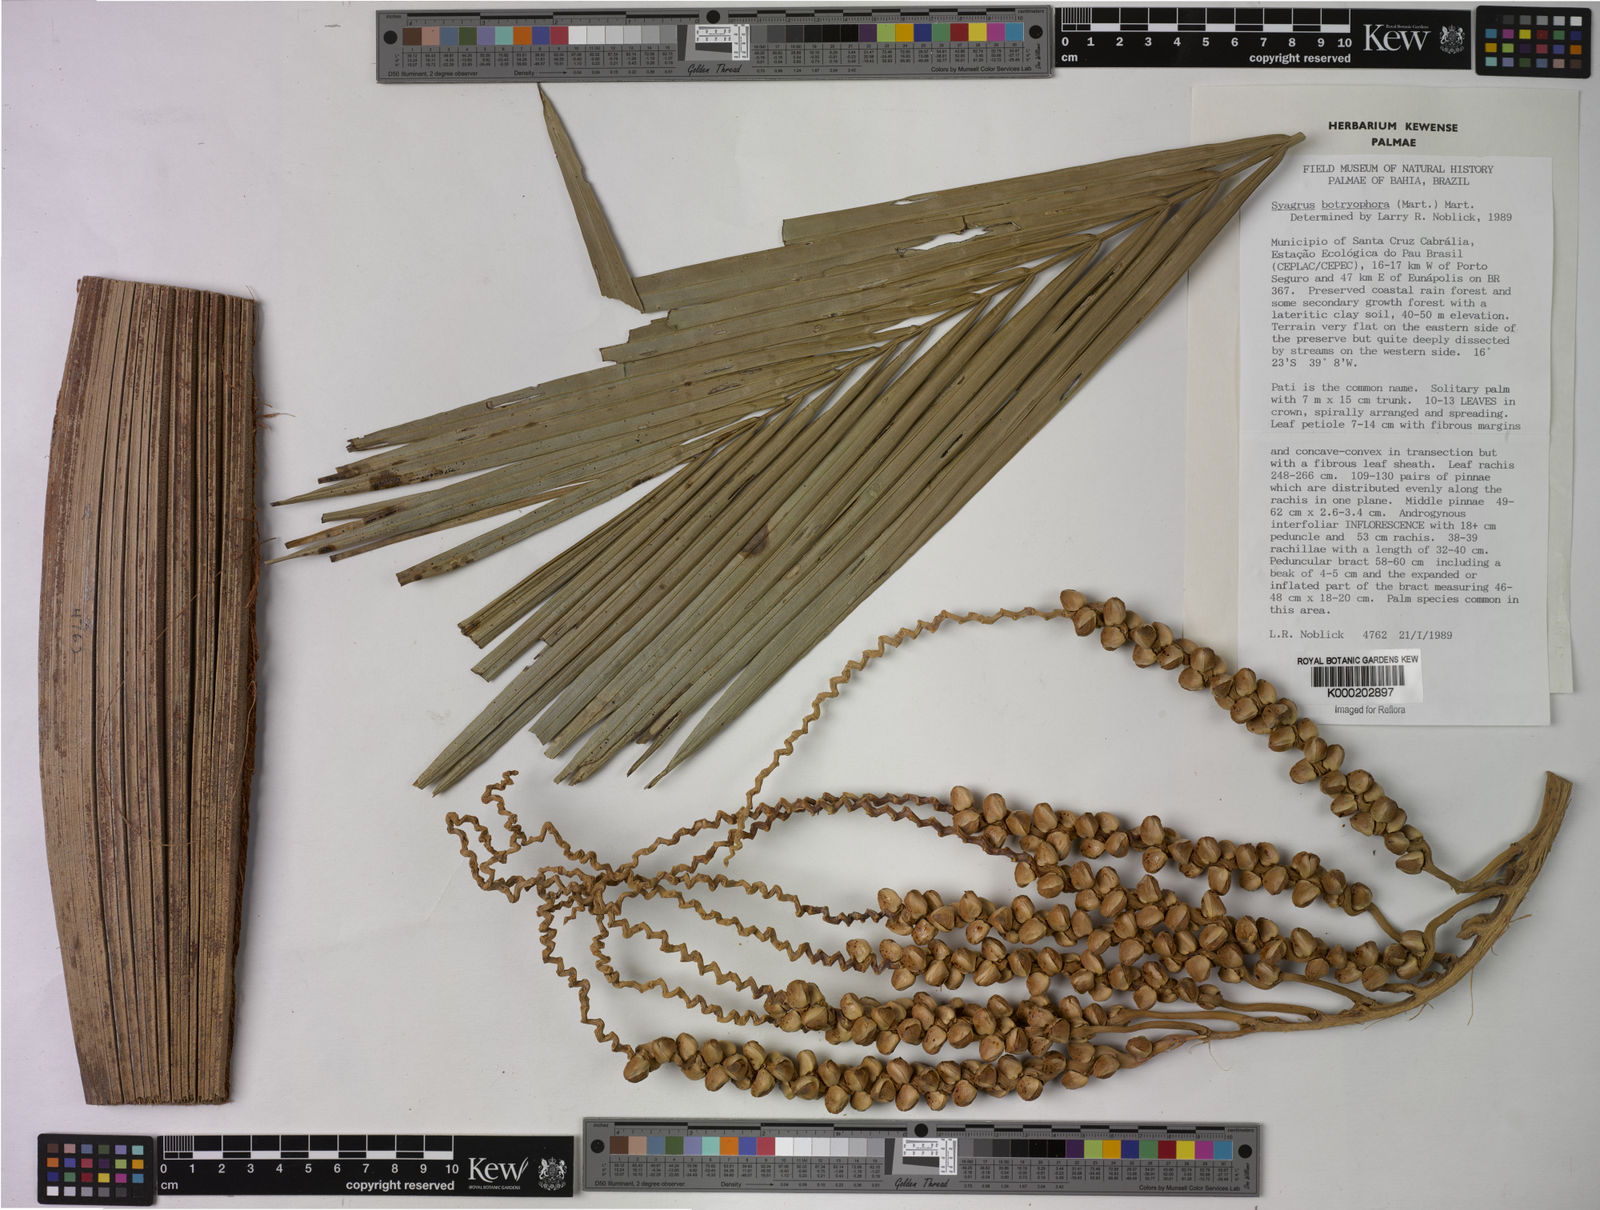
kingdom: Plantae
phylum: Tracheophyta
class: Liliopsida
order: Arecales
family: Arecaceae
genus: Syagrus
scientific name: Syagrus botryophora
